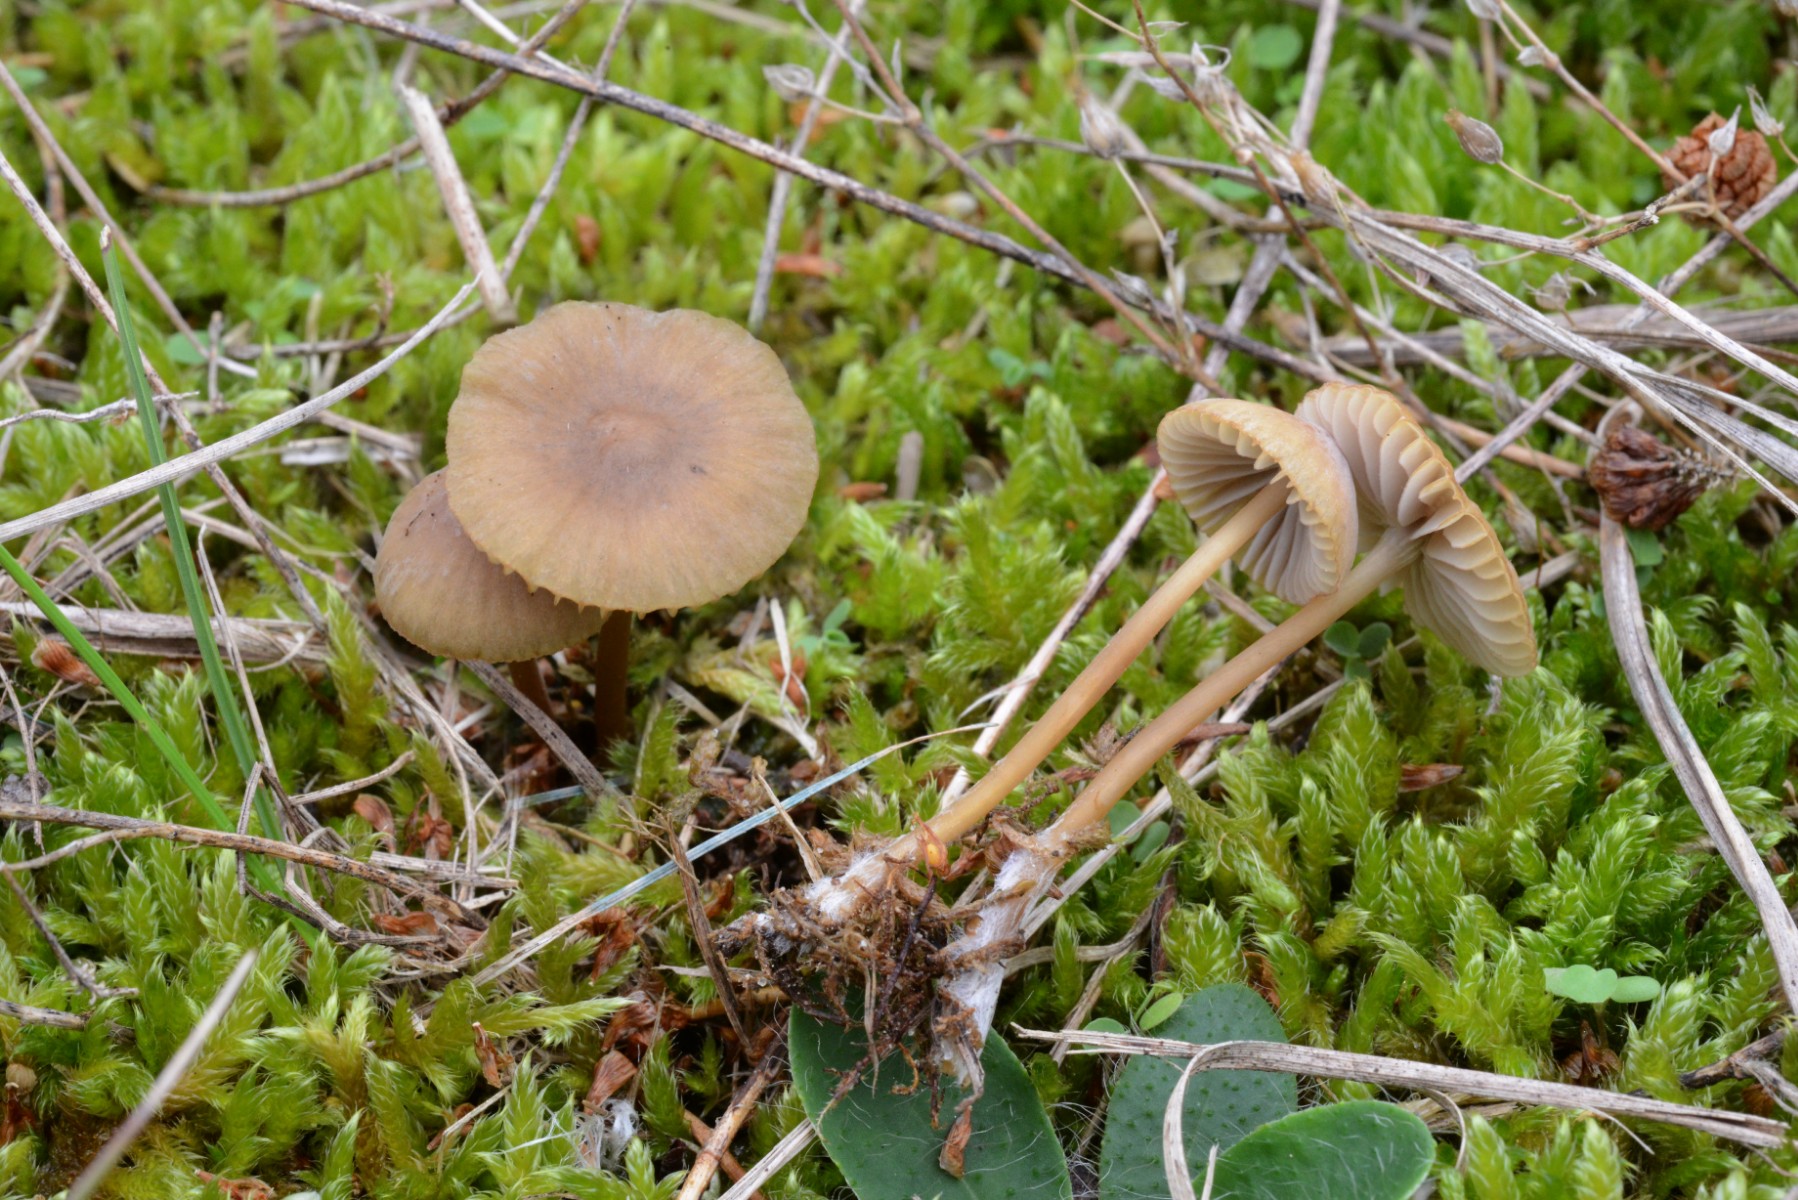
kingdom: Fungi
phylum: Basidiomycota
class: Agaricomycetes
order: Agaricales
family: Mycenaceae
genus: Mycena
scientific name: Mycena olivaceomarginata
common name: brunægget huesvamp
